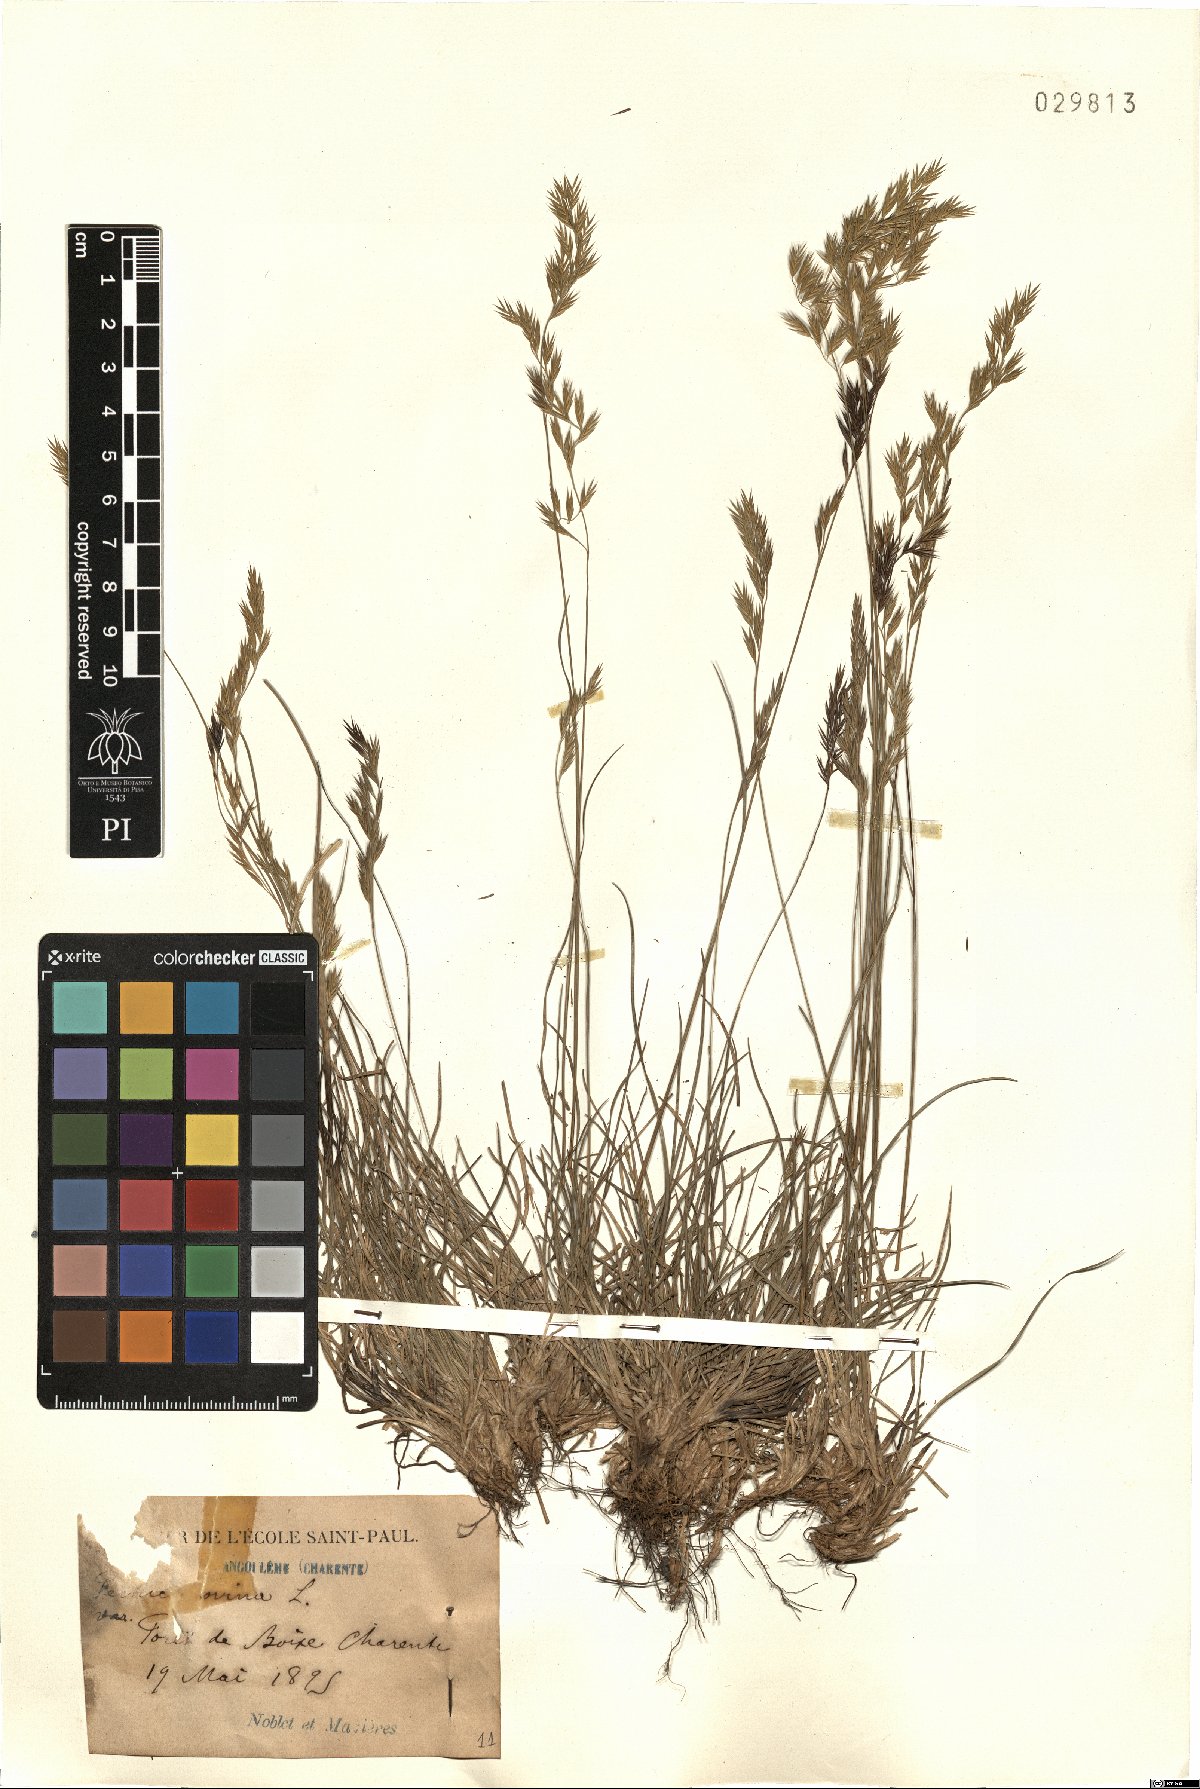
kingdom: Plantae
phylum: Tracheophyta
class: Liliopsida
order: Poales
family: Poaceae
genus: Festuca
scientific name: Festuca ovina
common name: Sheep fescue
